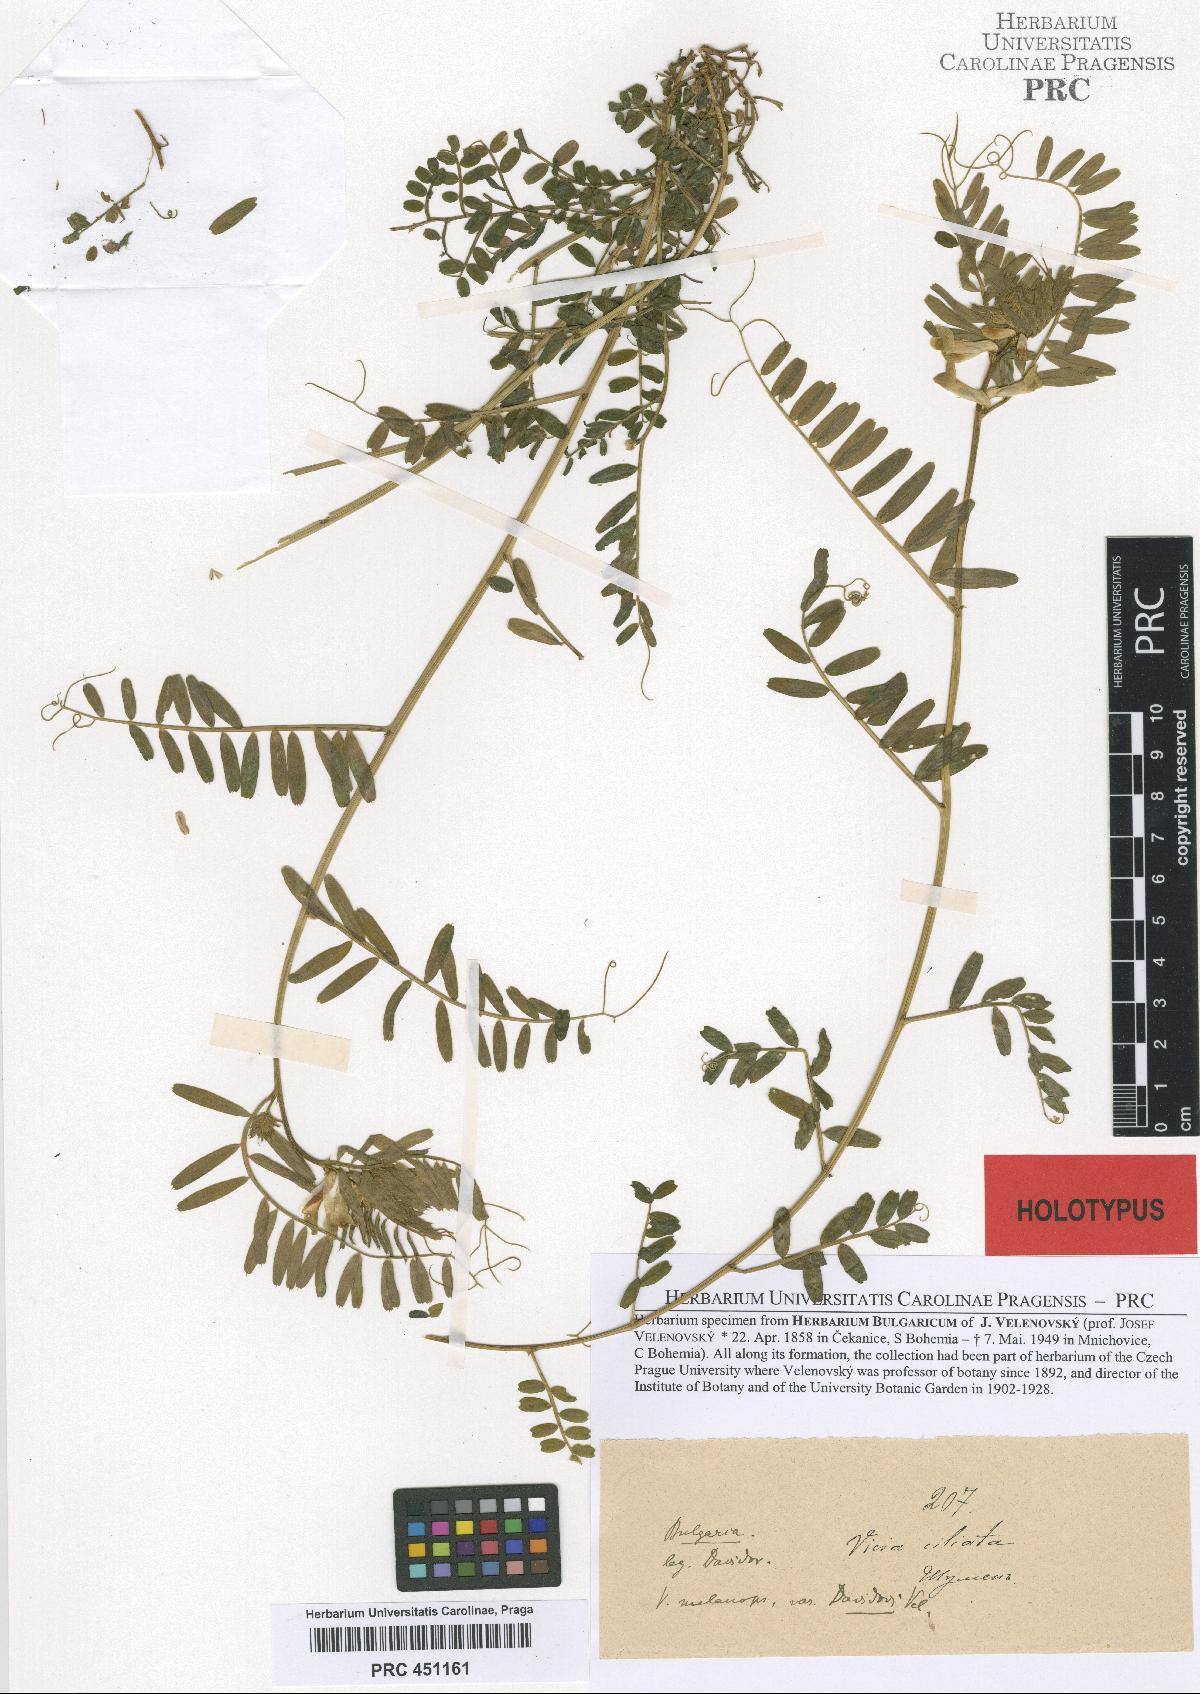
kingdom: Plantae
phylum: Tracheophyta
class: Magnoliopsida
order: Fabales
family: Fabaceae
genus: Vicia
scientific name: Vicia melanops
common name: Black-eyed vetch
